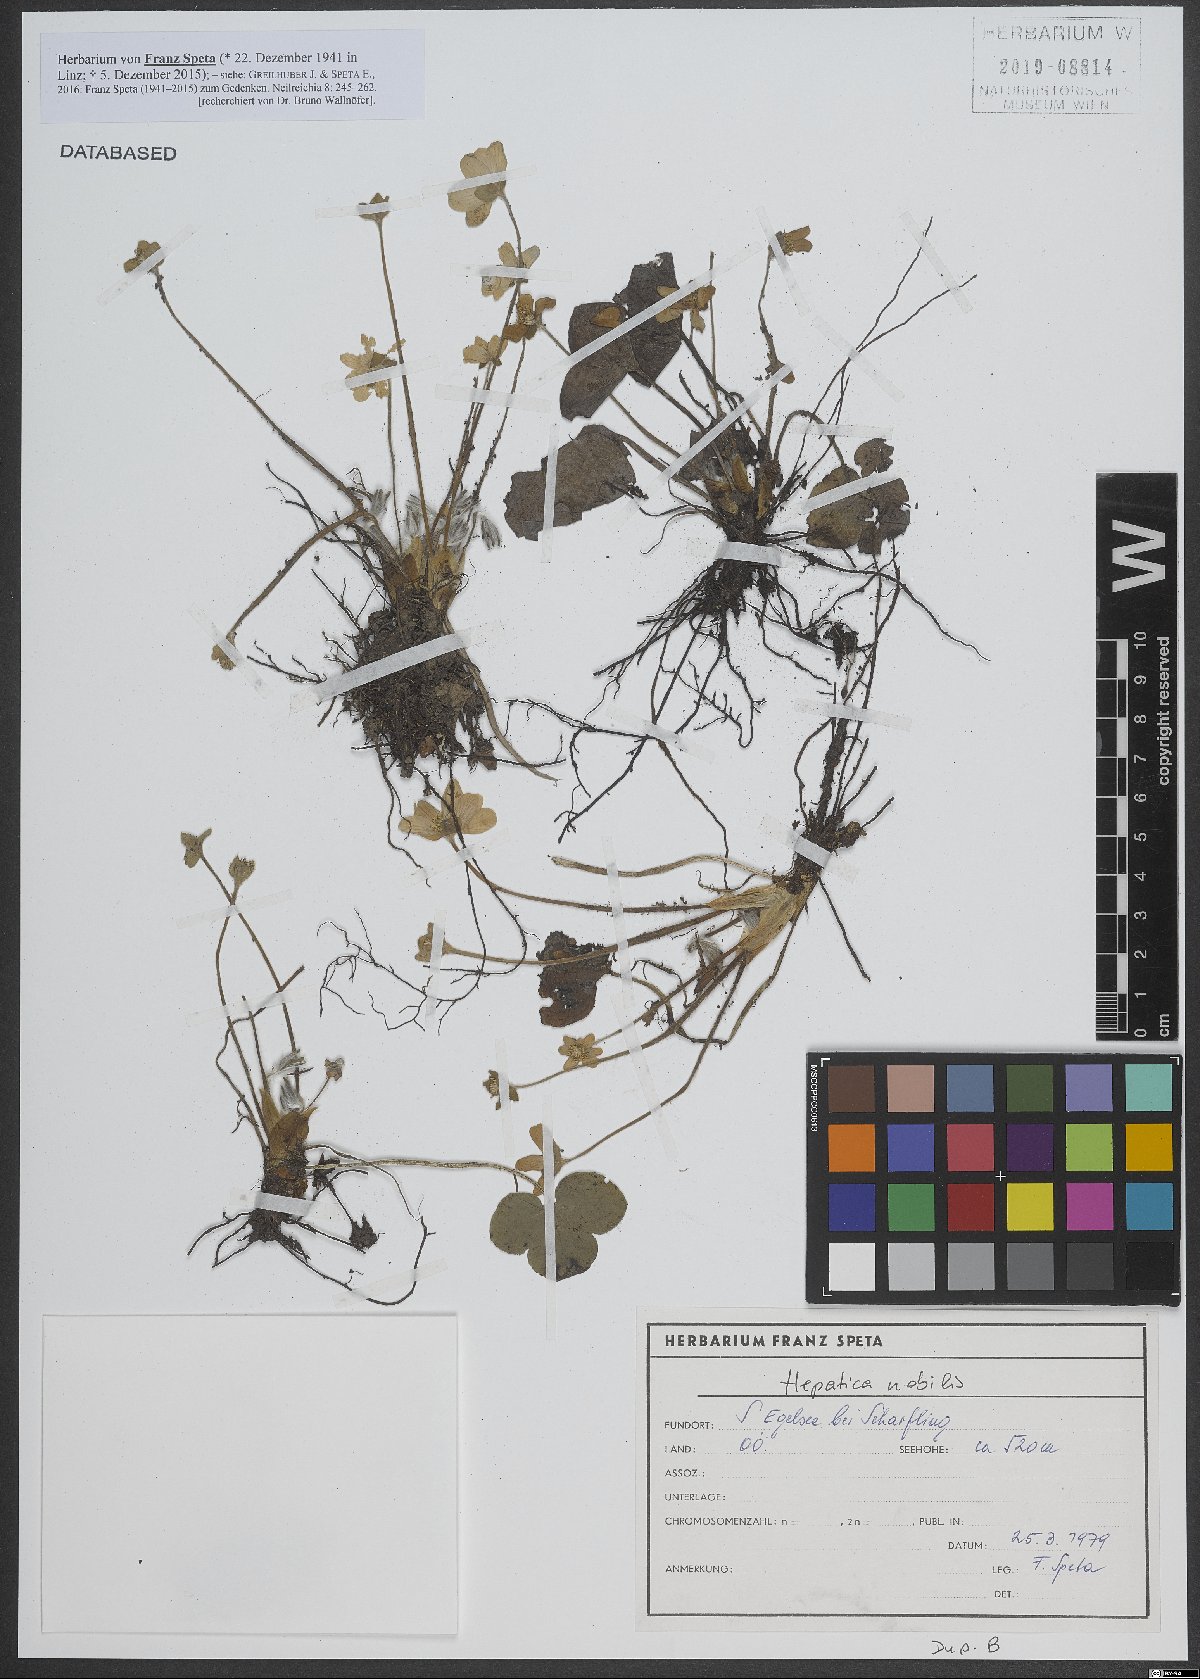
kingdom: Plantae
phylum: Tracheophyta
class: Magnoliopsida
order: Ranunculales
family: Ranunculaceae
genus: Hepatica
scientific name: Hepatica nobilis
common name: Liverleaf
